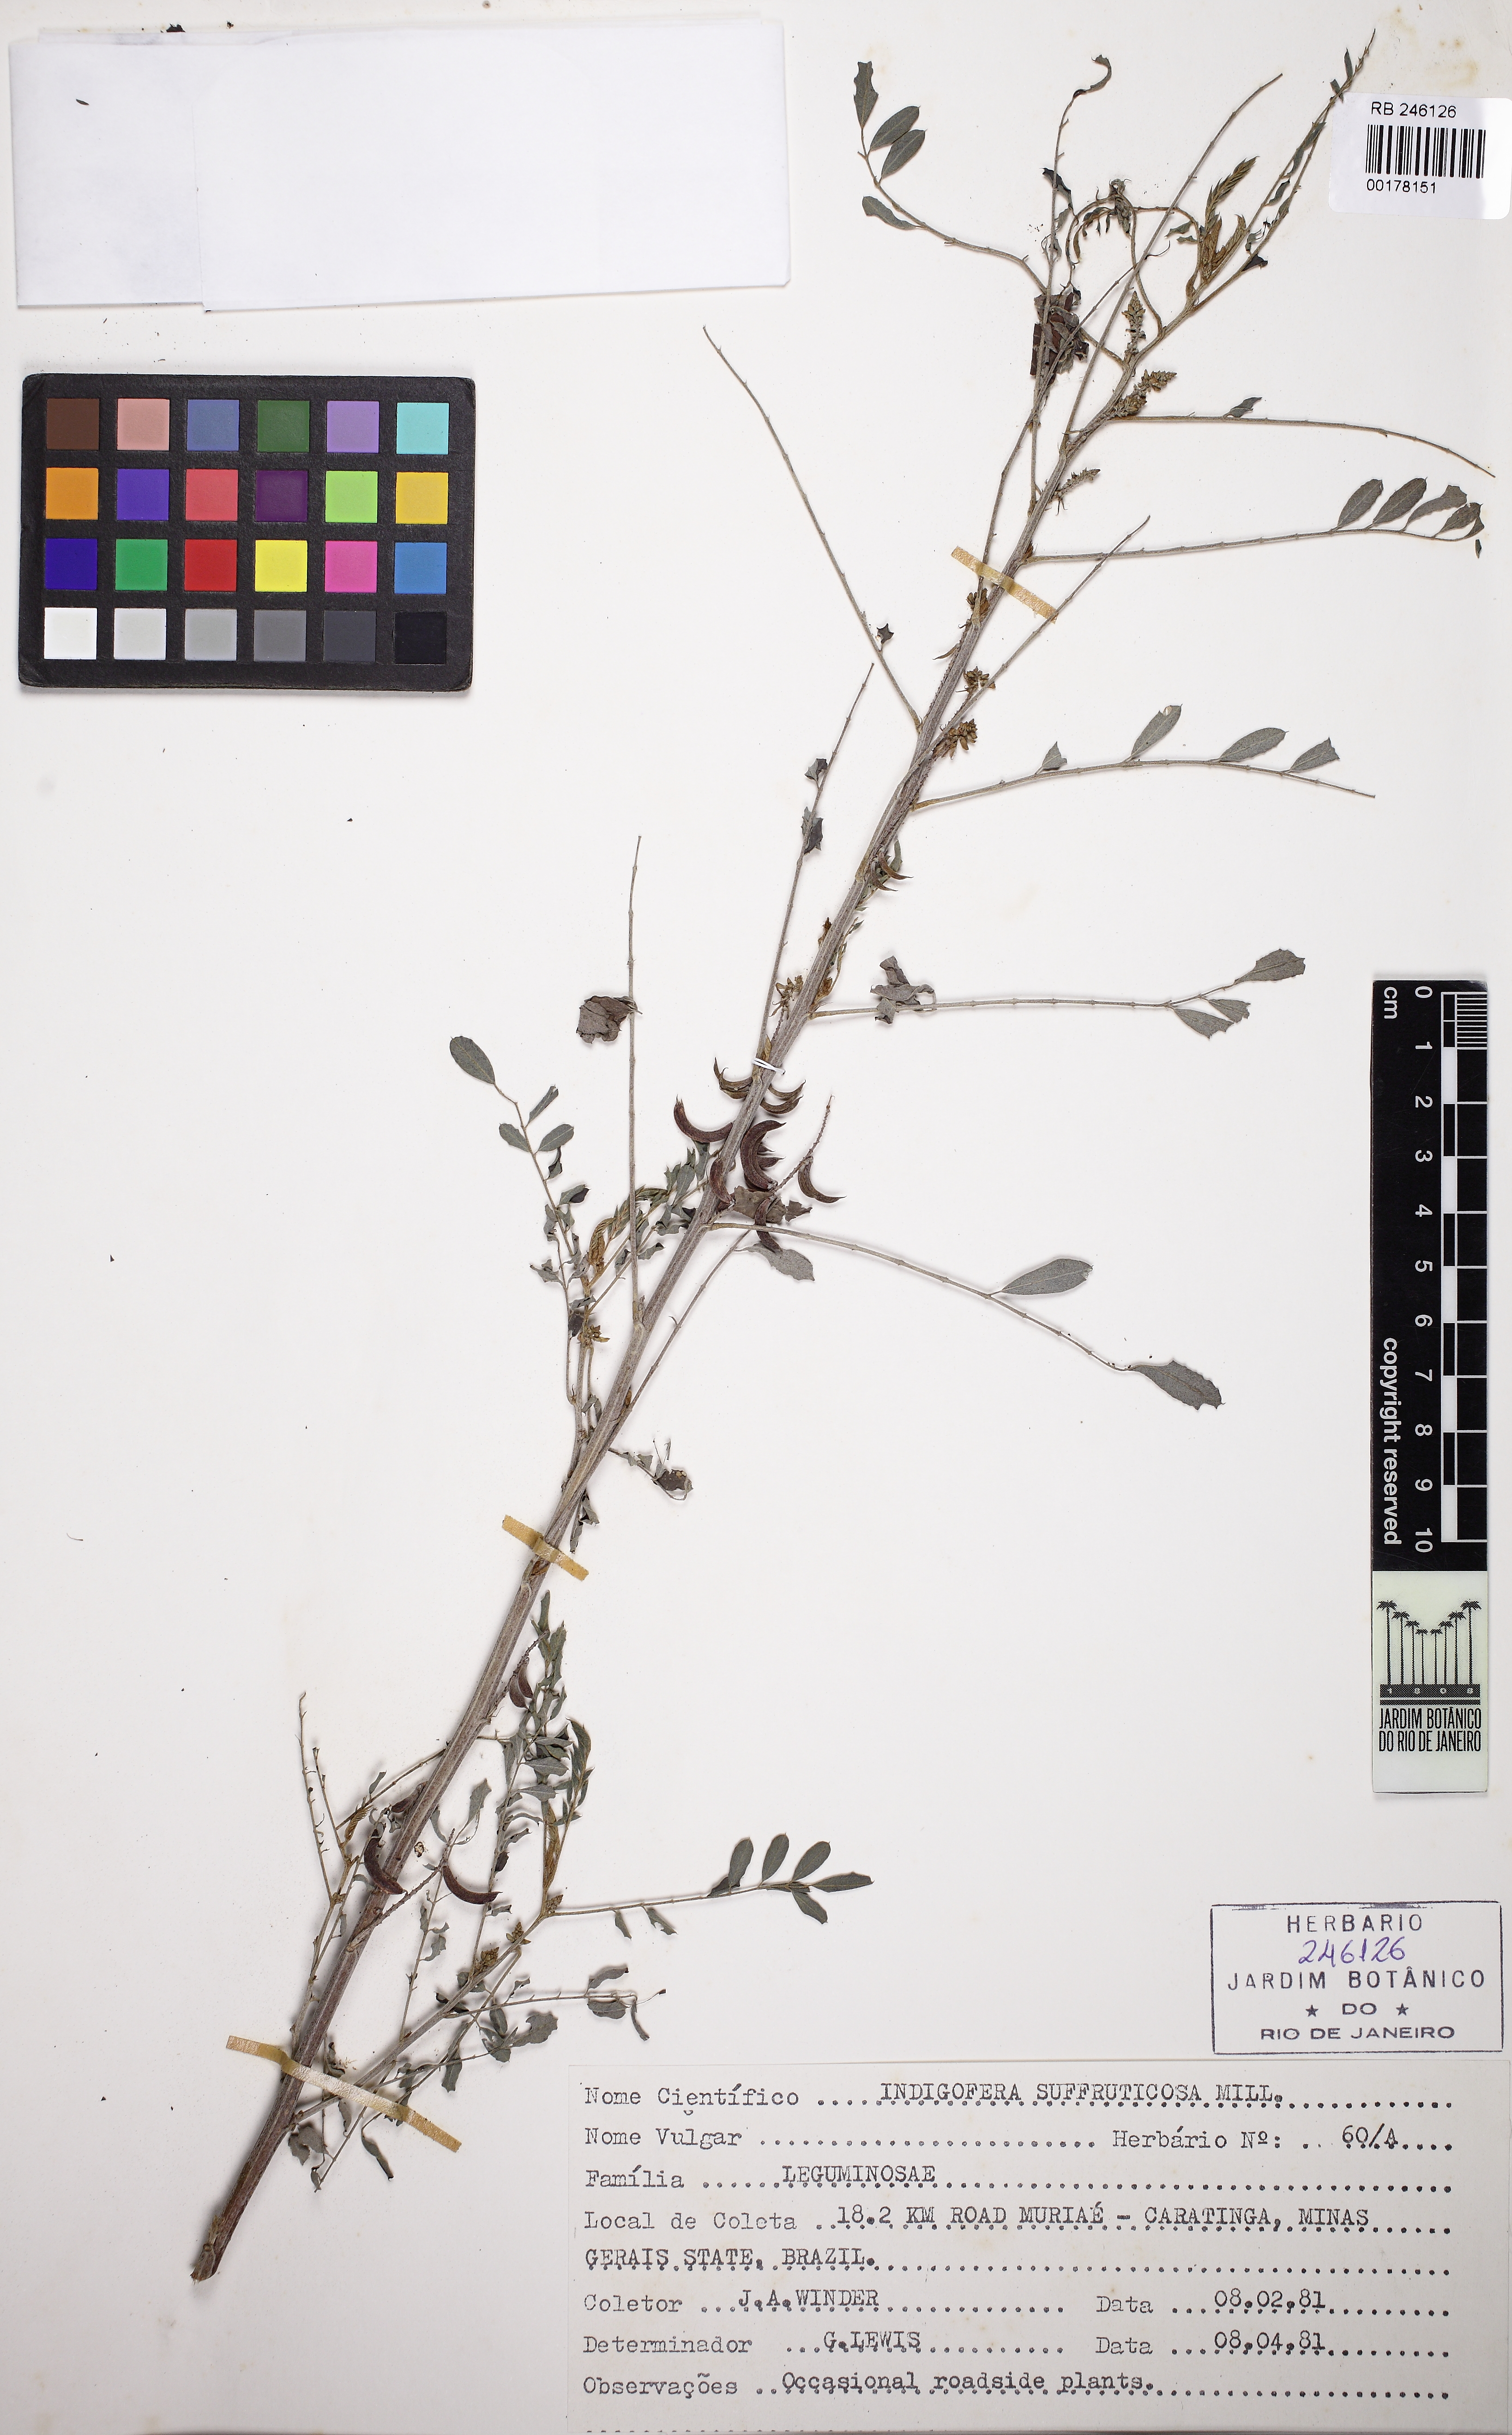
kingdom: Plantae
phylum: Tracheophyta
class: Magnoliopsida
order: Fabales
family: Fabaceae
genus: Indigofera
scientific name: Indigofera suffruticosa
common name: Anil de pasto
